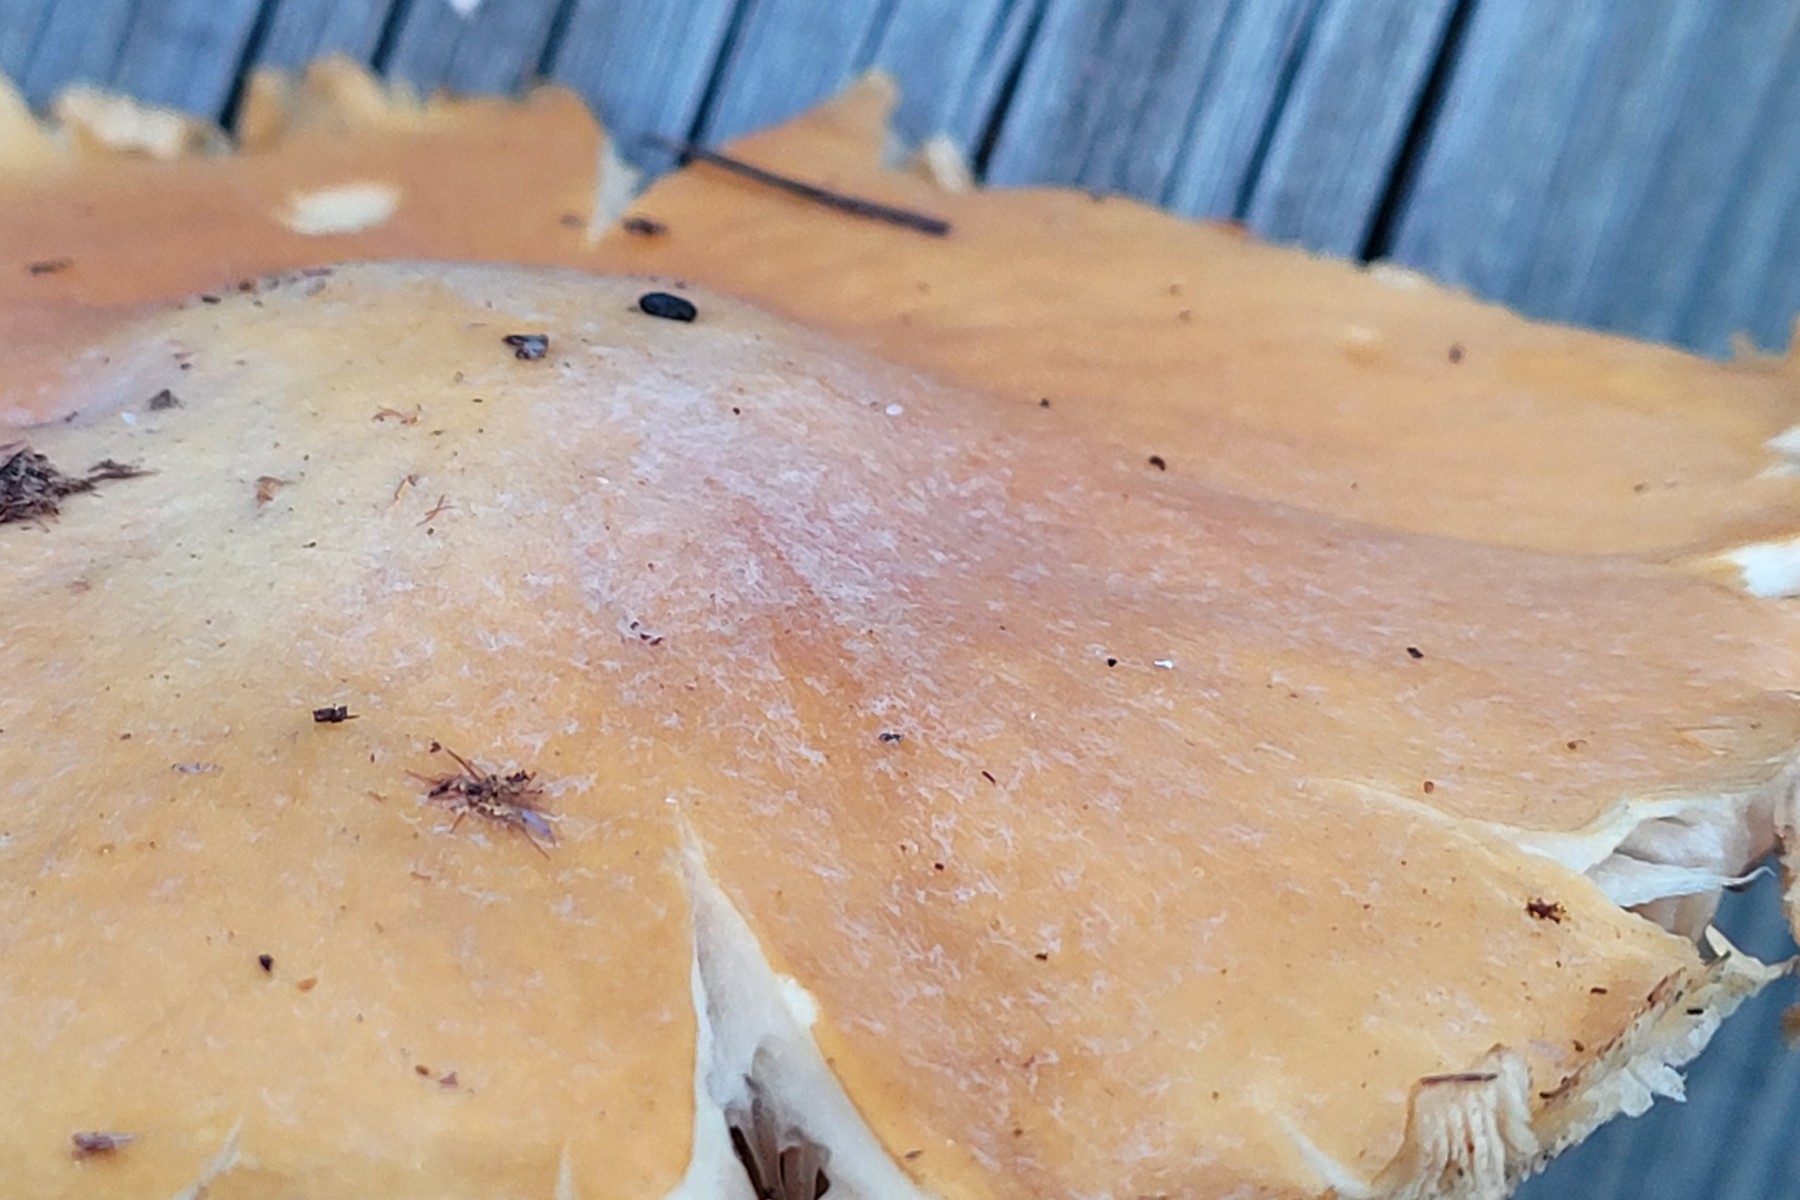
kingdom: Fungi
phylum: Basidiomycota
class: Agaricomycetes
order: Agaricales
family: Cortinariaceae
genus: Cortinarius
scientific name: Cortinarius caperatus
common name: klidhat
